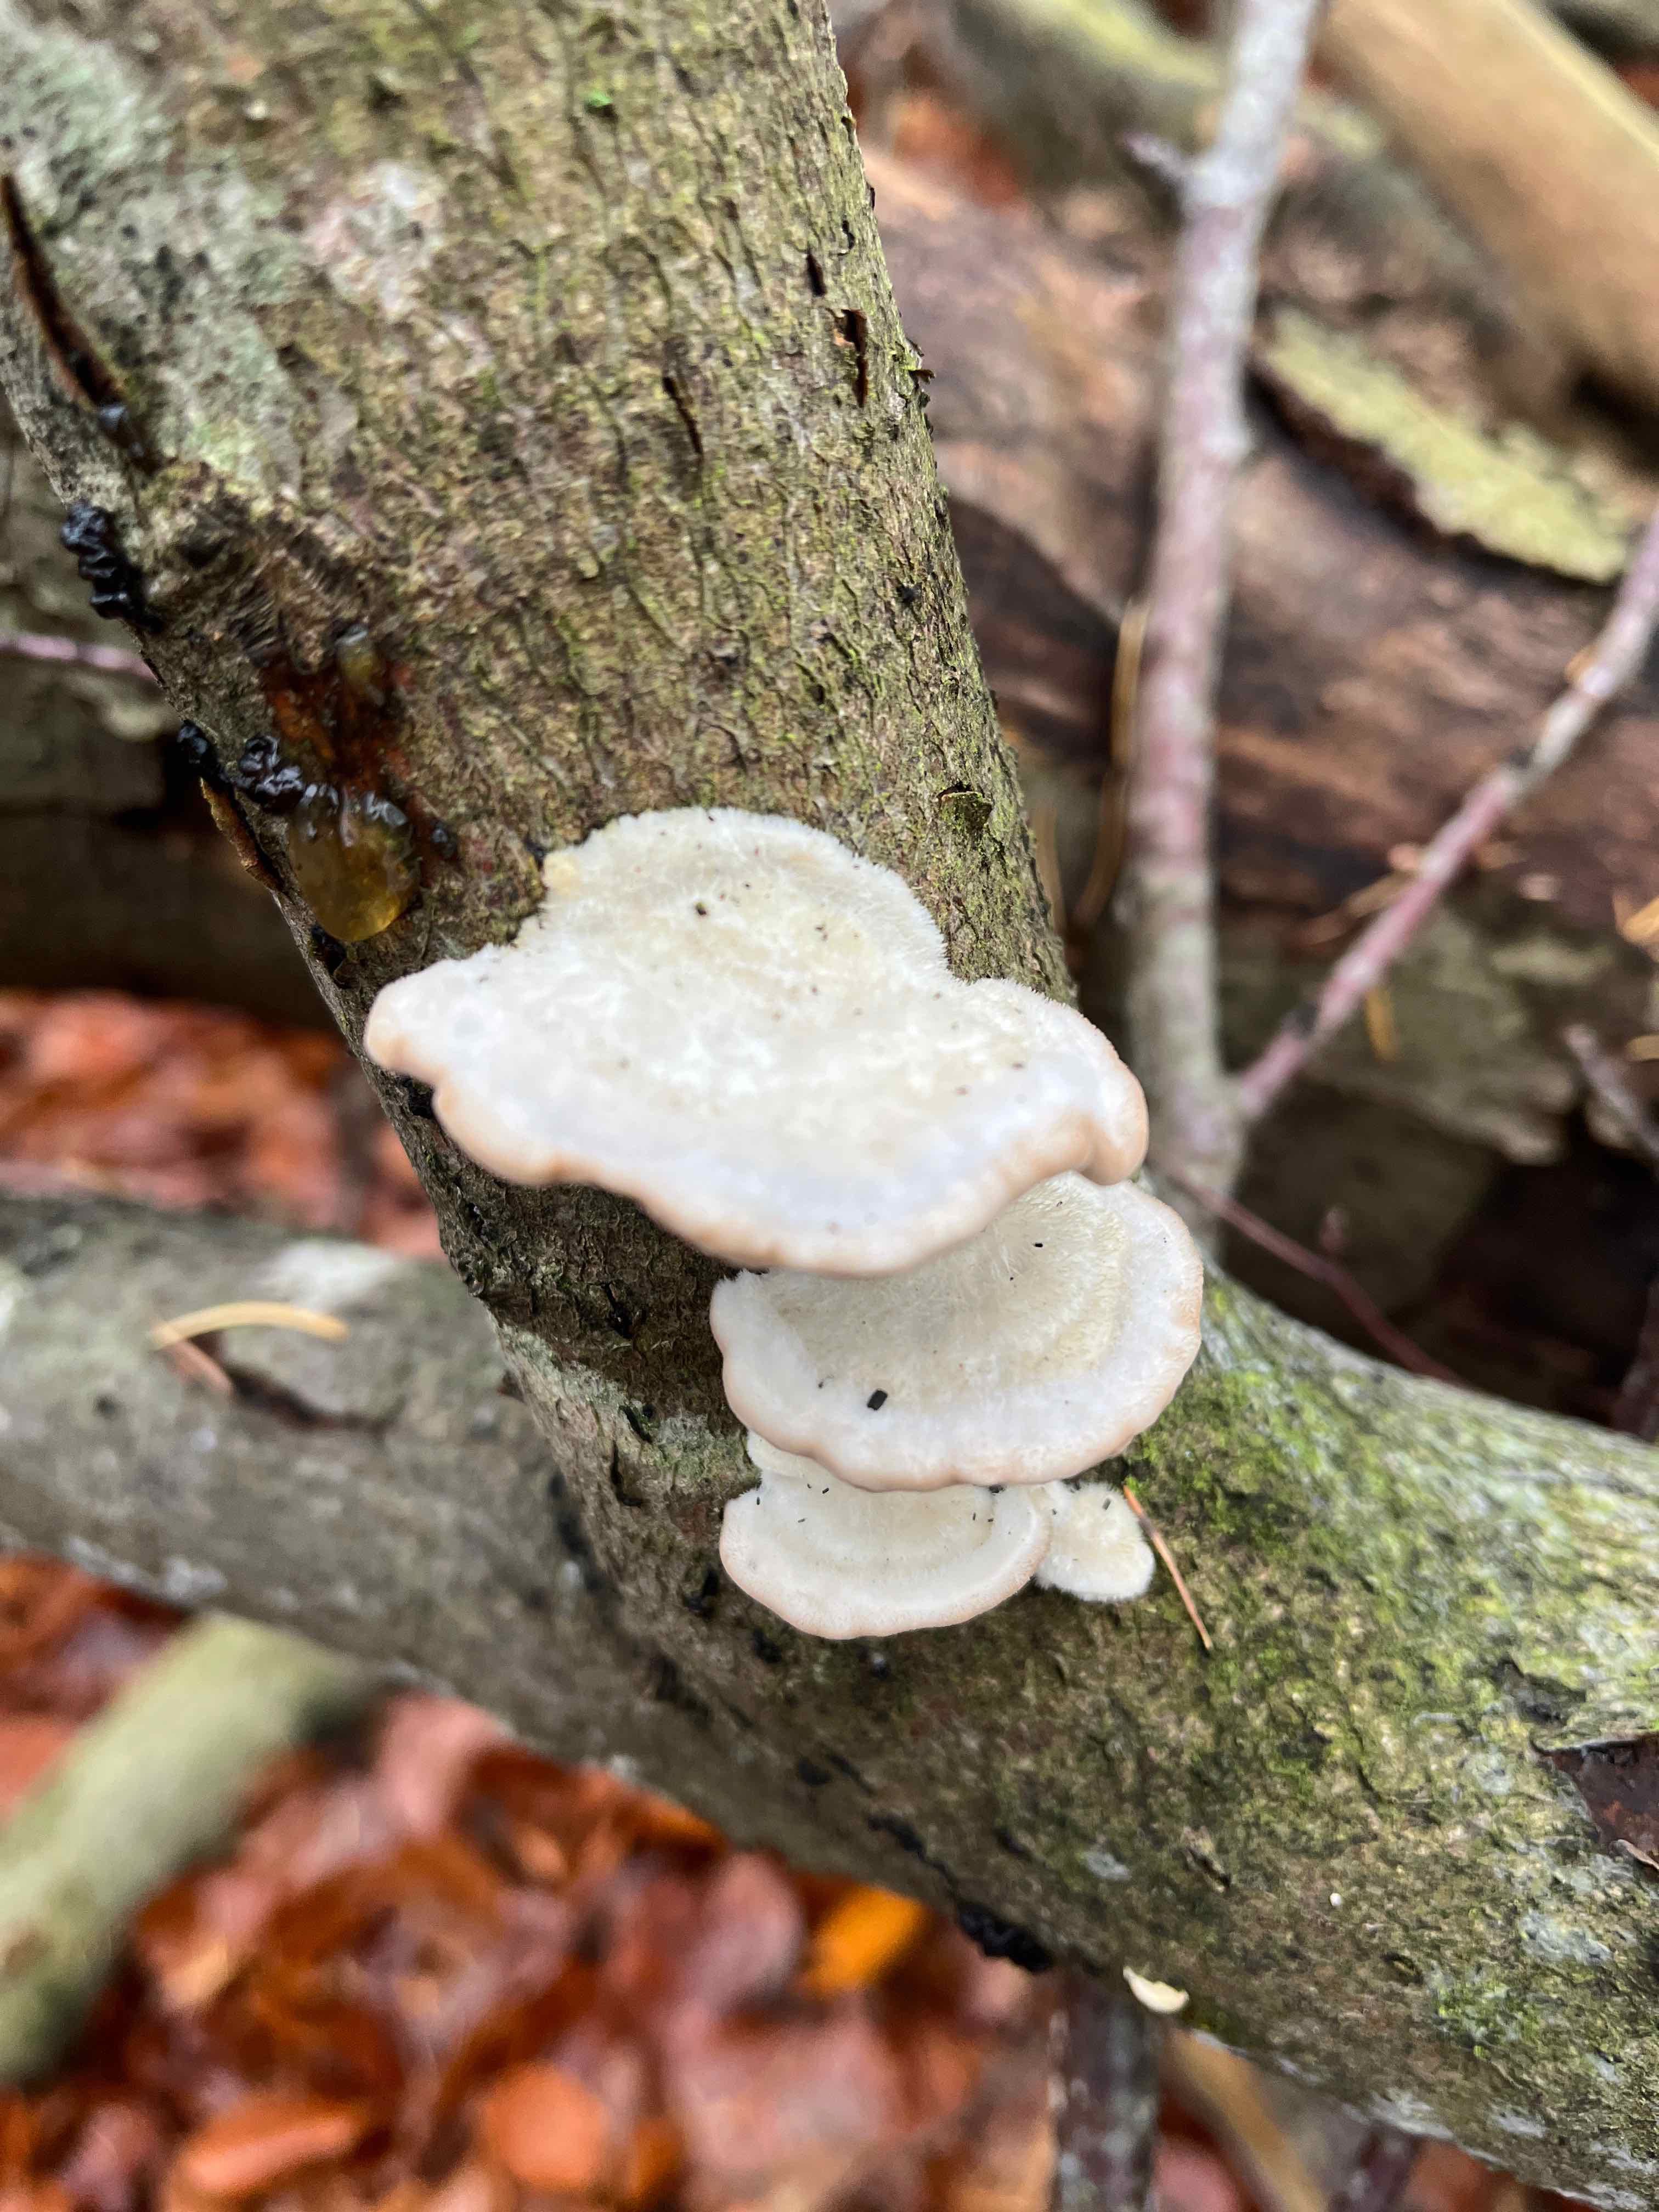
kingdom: Fungi
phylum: Basidiomycota
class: Agaricomycetes
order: Polyporales
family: Polyporaceae
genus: Trametes
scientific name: Trametes hirsuta
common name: håret læderporesvamp
